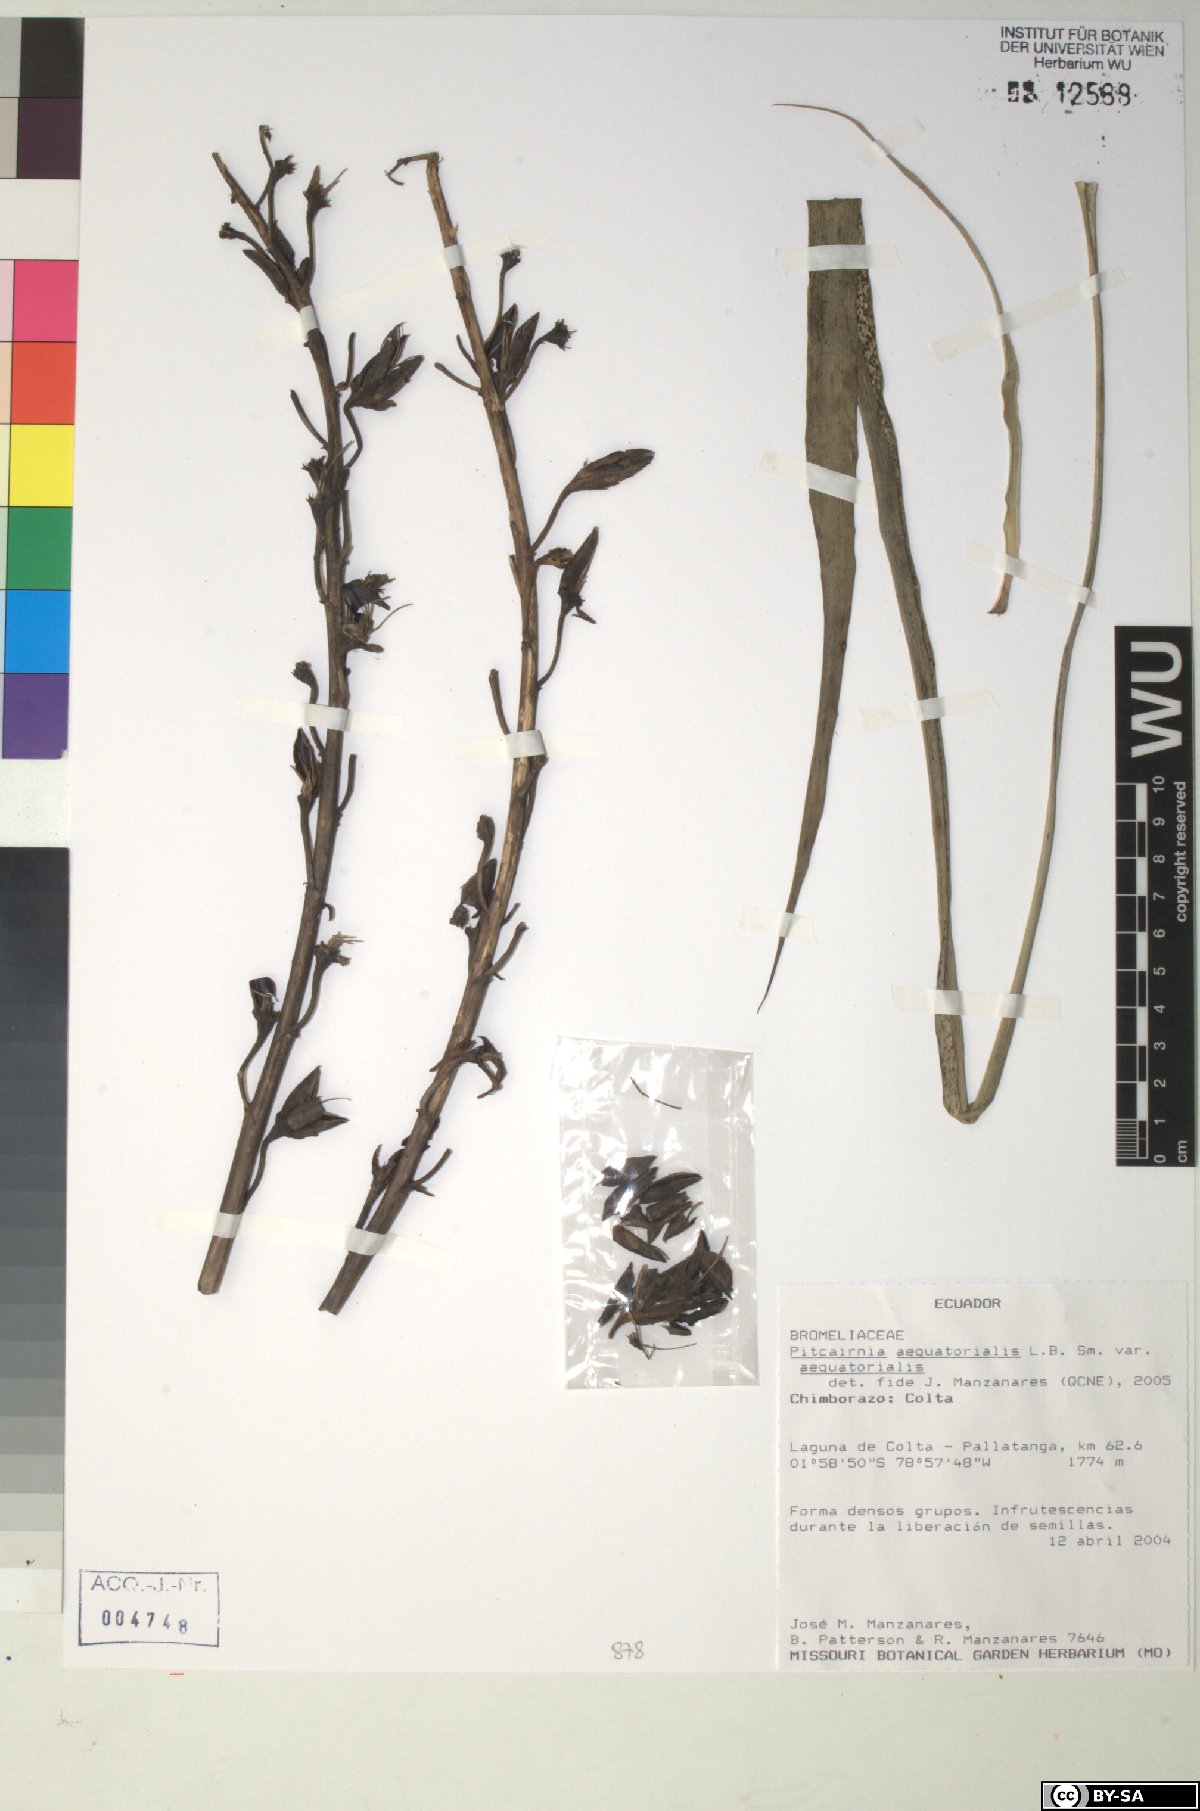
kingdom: Plantae
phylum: Tracheophyta
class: Liliopsida
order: Poales
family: Bromeliaceae
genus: Pitcairnia
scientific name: Pitcairnia aequatorialis
